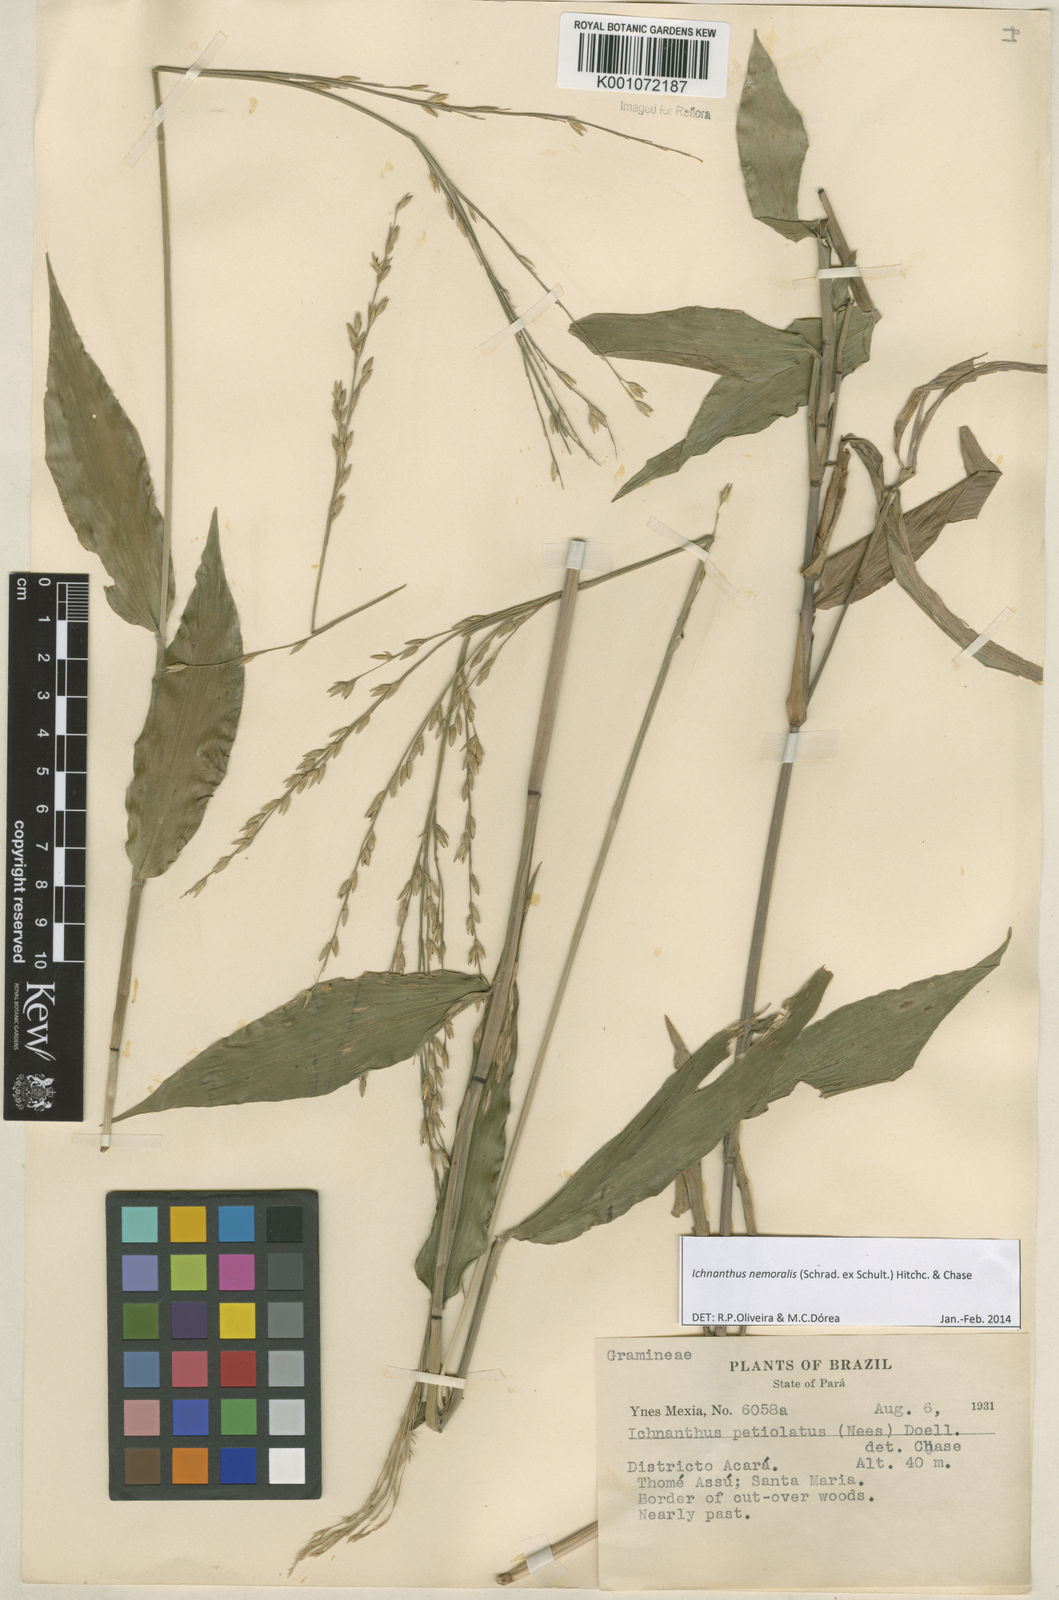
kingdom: Plantae
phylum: Tracheophyta
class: Liliopsida
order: Poales
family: Poaceae
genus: Ichnanthus
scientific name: Ichnanthus nemoralis
